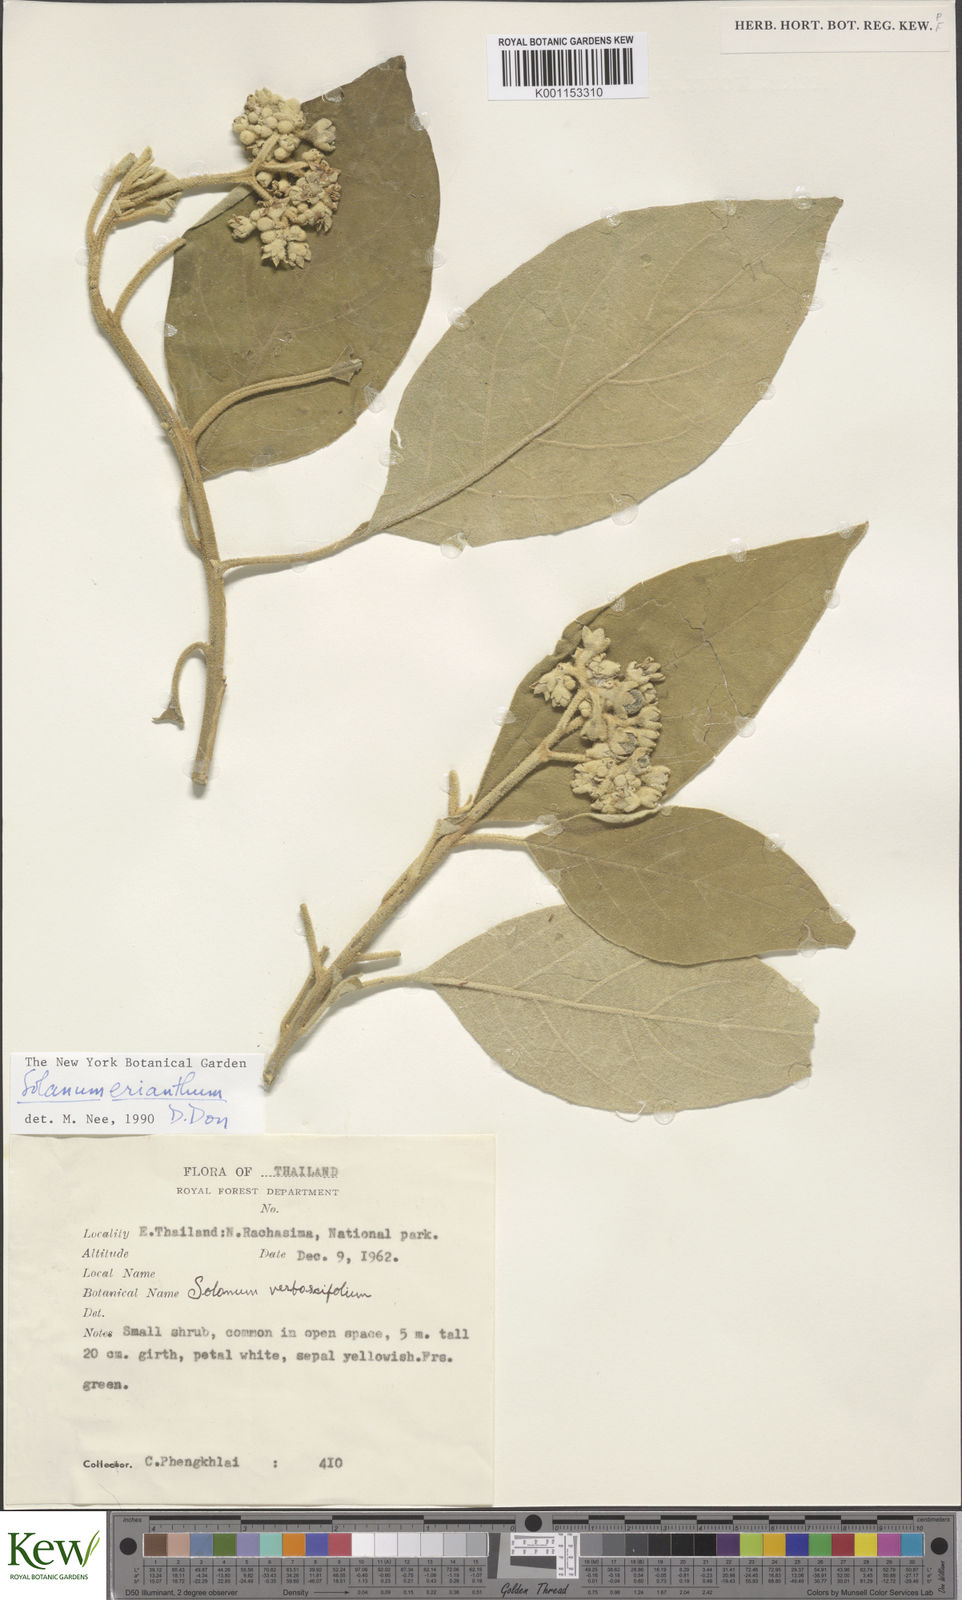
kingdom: Plantae
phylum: Tracheophyta
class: Magnoliopsida
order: Solanales
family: Solanaceae
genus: Solanum
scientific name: Solanum erianthum
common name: Tobacco-tree
